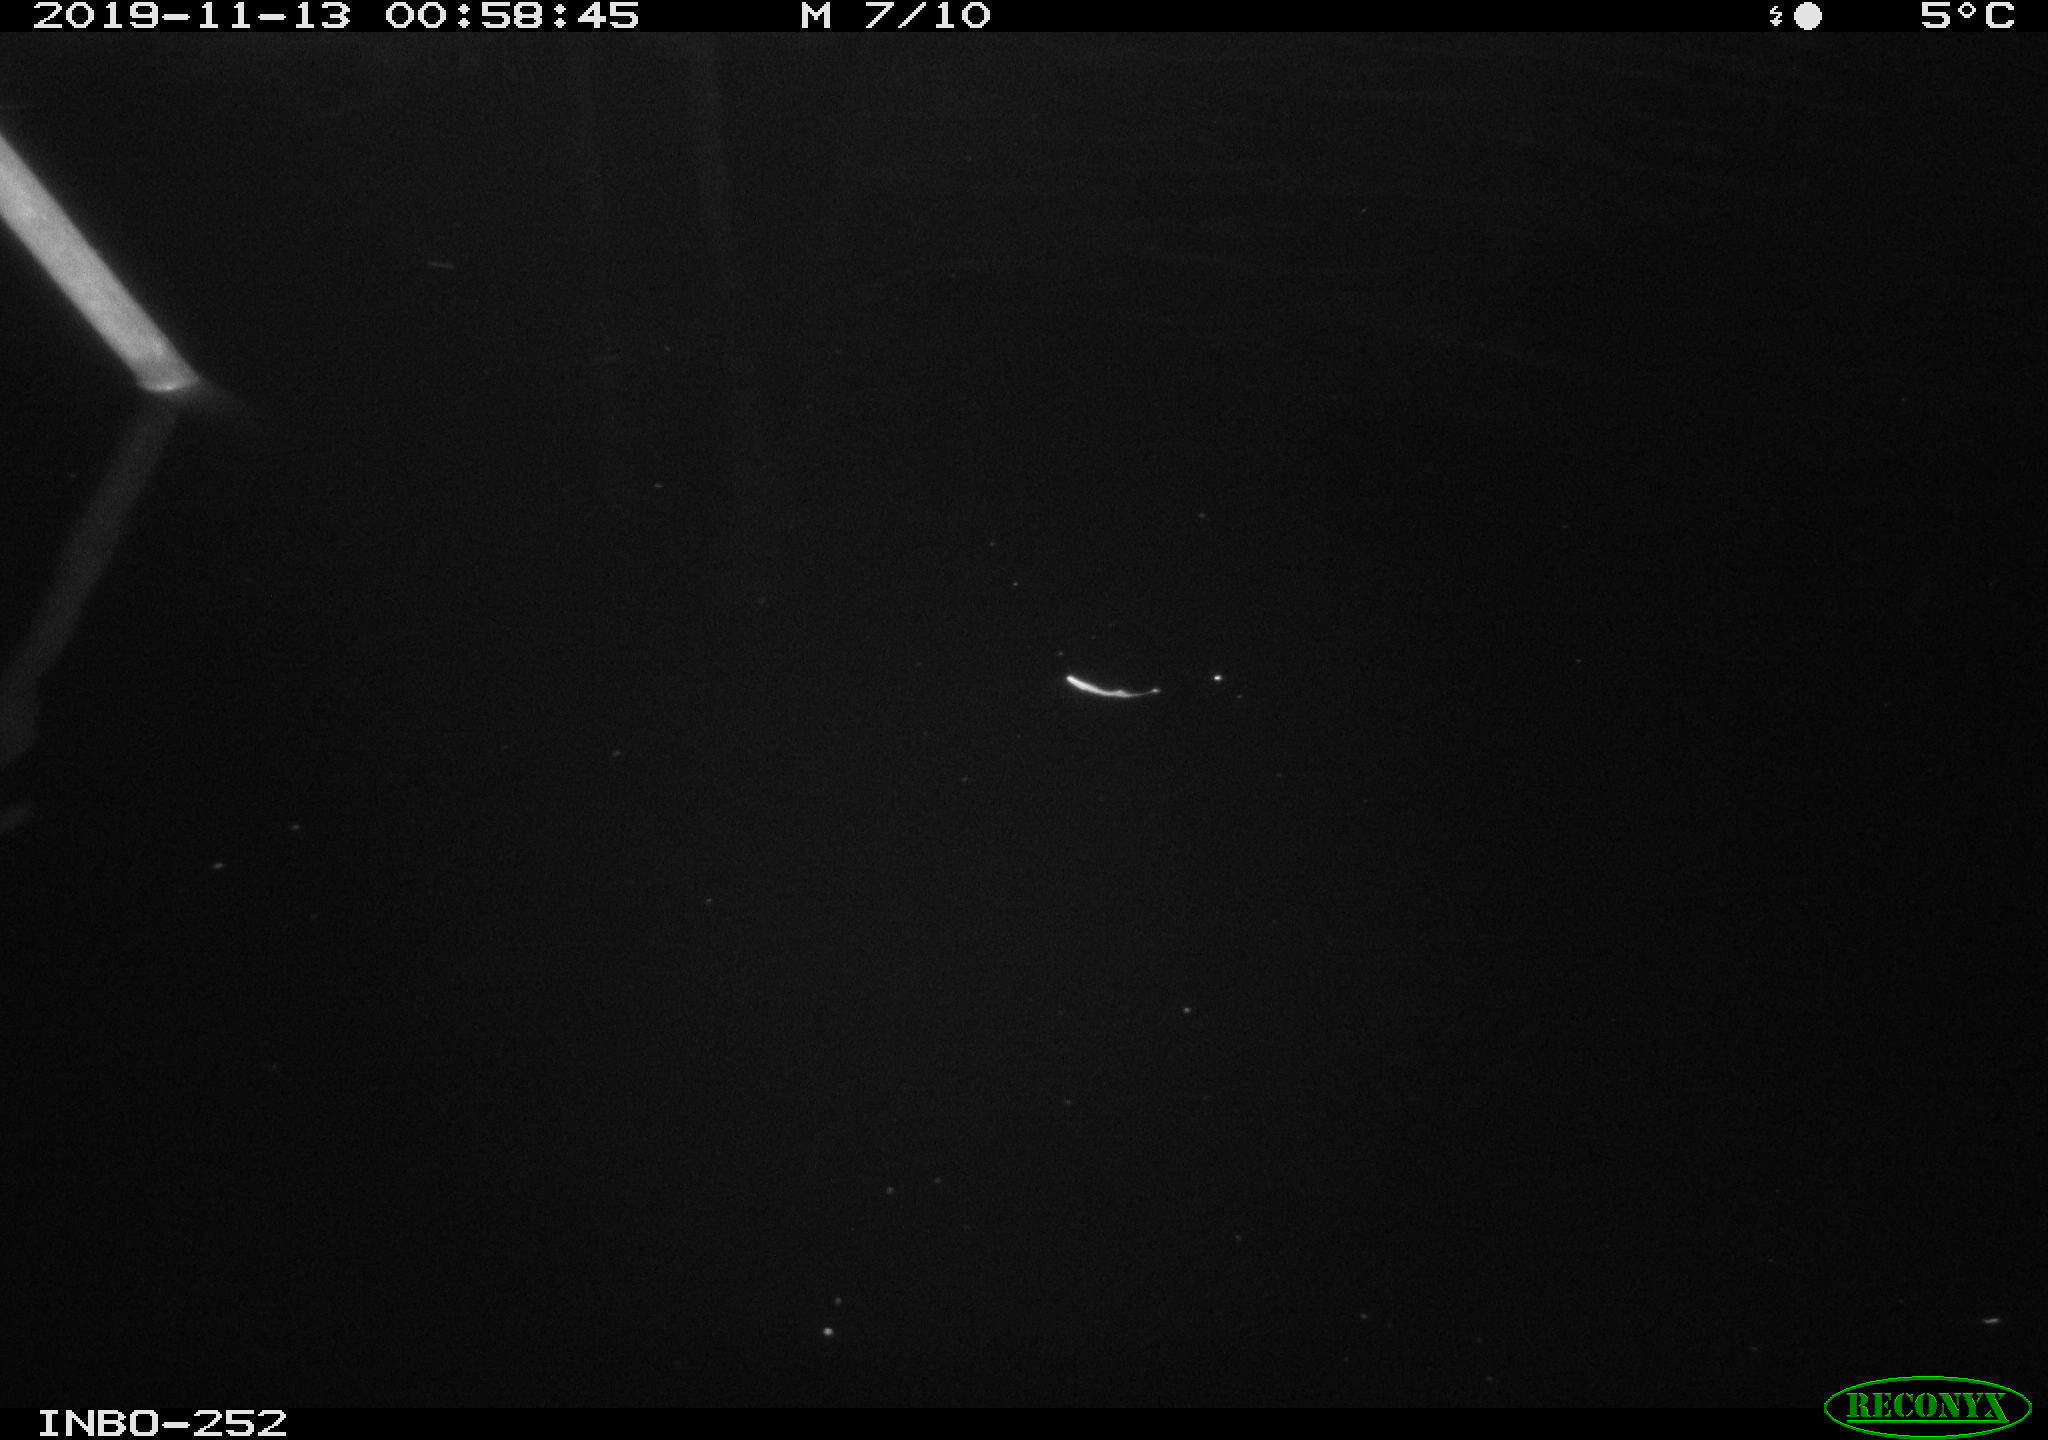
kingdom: Animalia
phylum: Chordata
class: Aves
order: Anseriformes
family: Anatidae
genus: Anas
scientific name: Anas platyrhynchos
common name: Mallard
